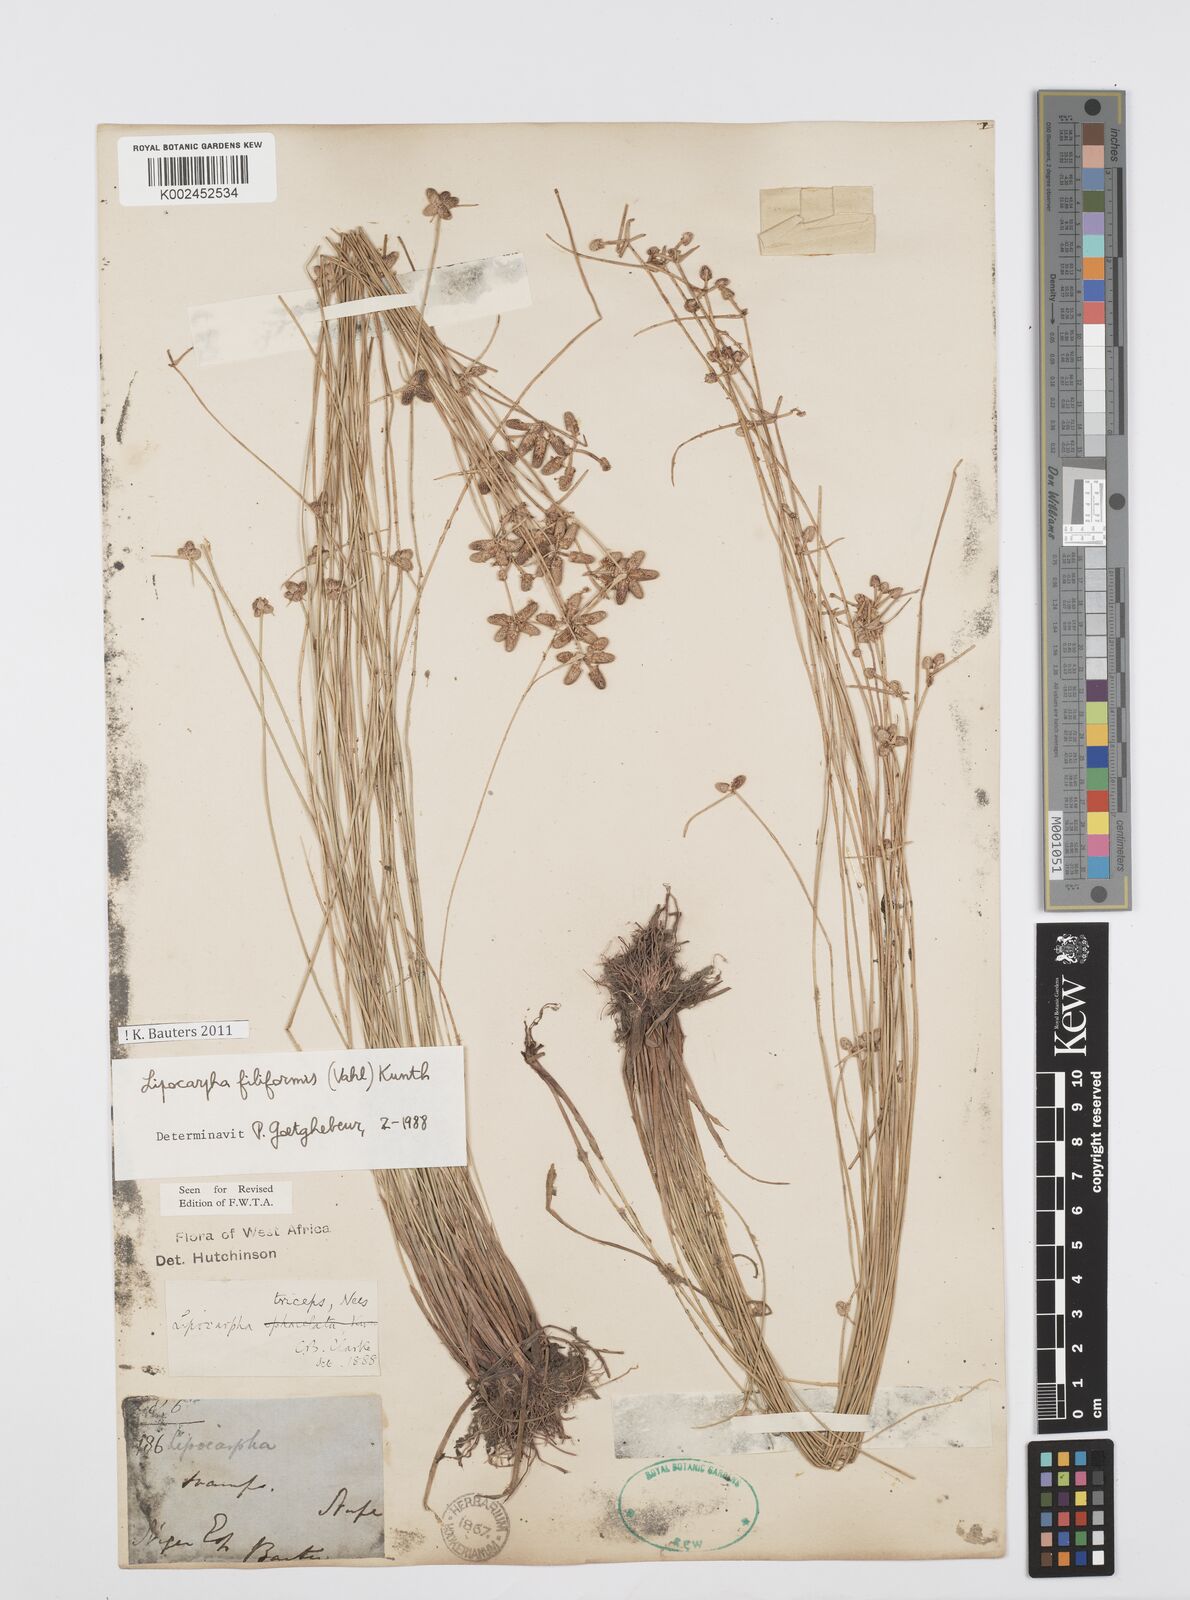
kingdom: Plantae
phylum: Tracheophyta
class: Liliopsida
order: Poales
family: Cyperaceae
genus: Cyperus
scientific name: Cyperus filiformis
